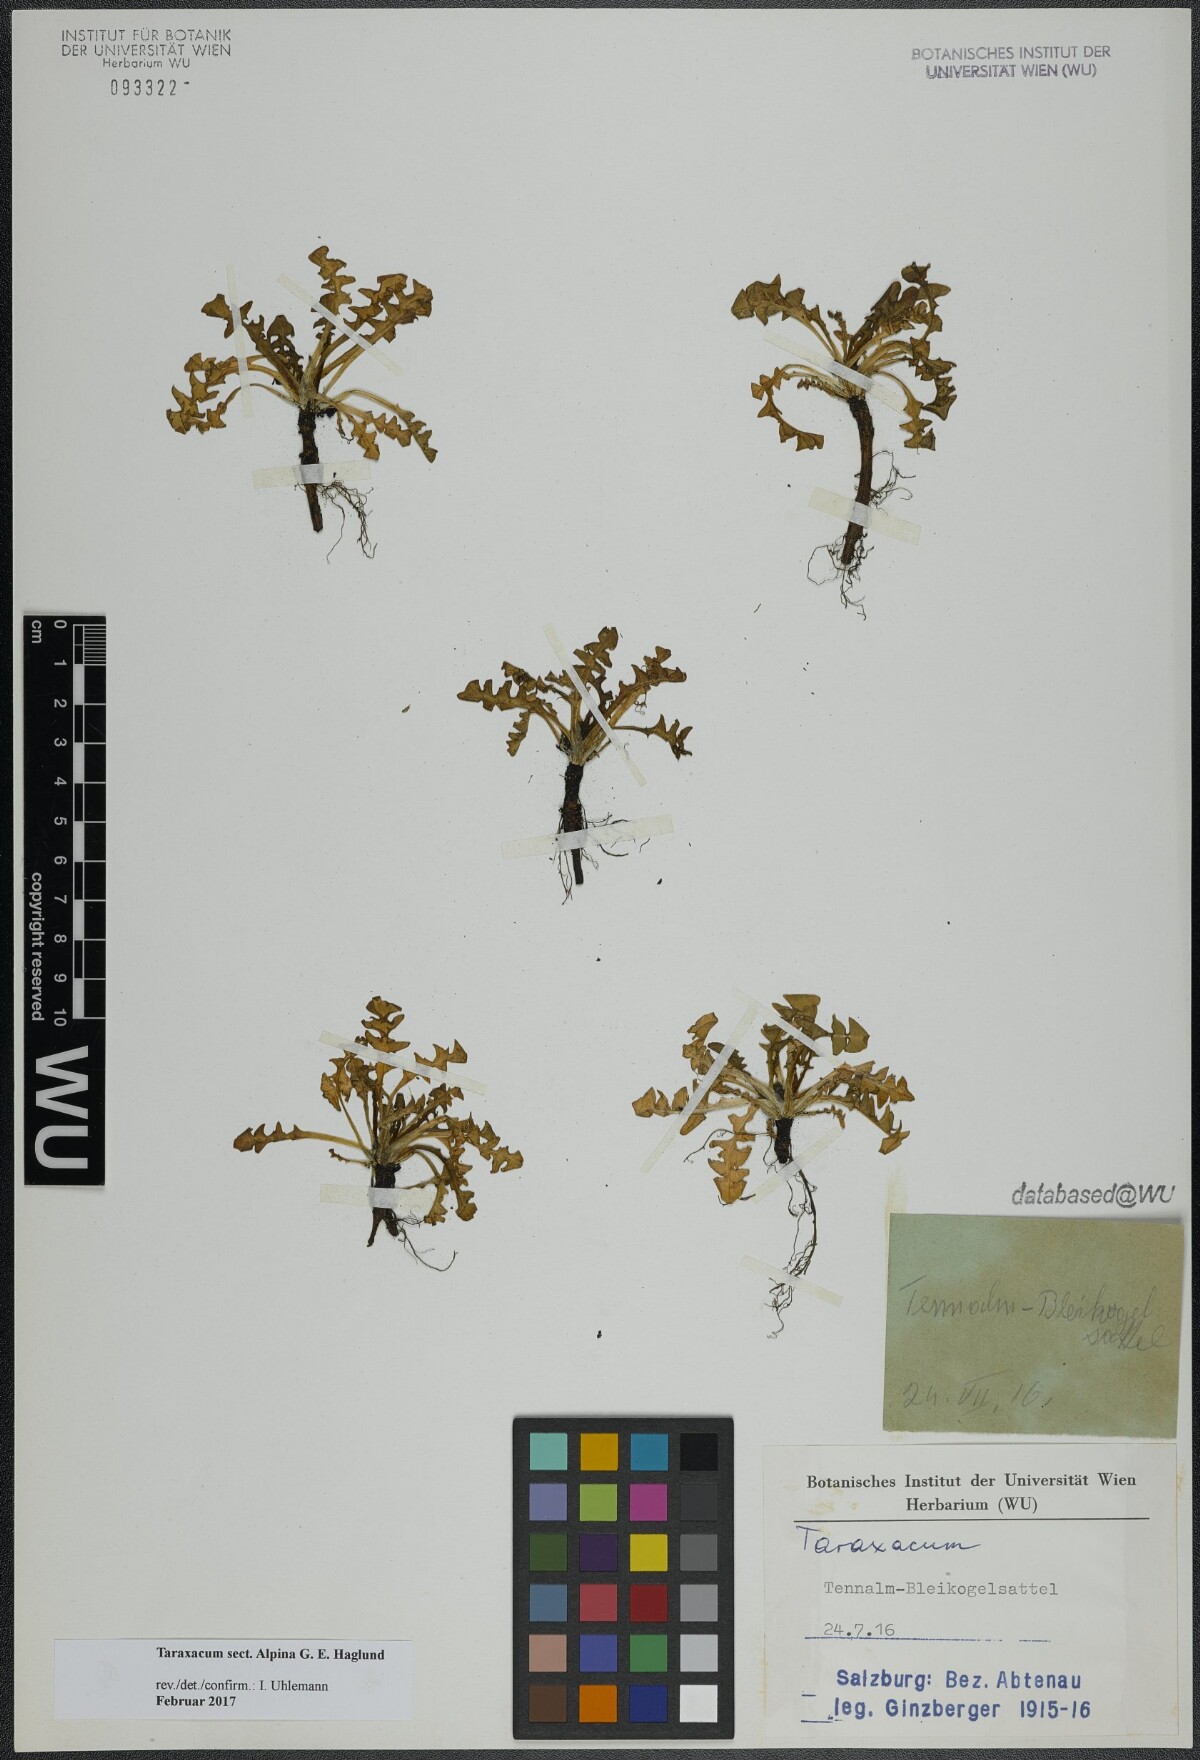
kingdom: Plantae
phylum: Tracheophyta
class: Magnoliopsida
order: Asterales
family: Asteraceae
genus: Taraxacum
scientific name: Taraxacum
